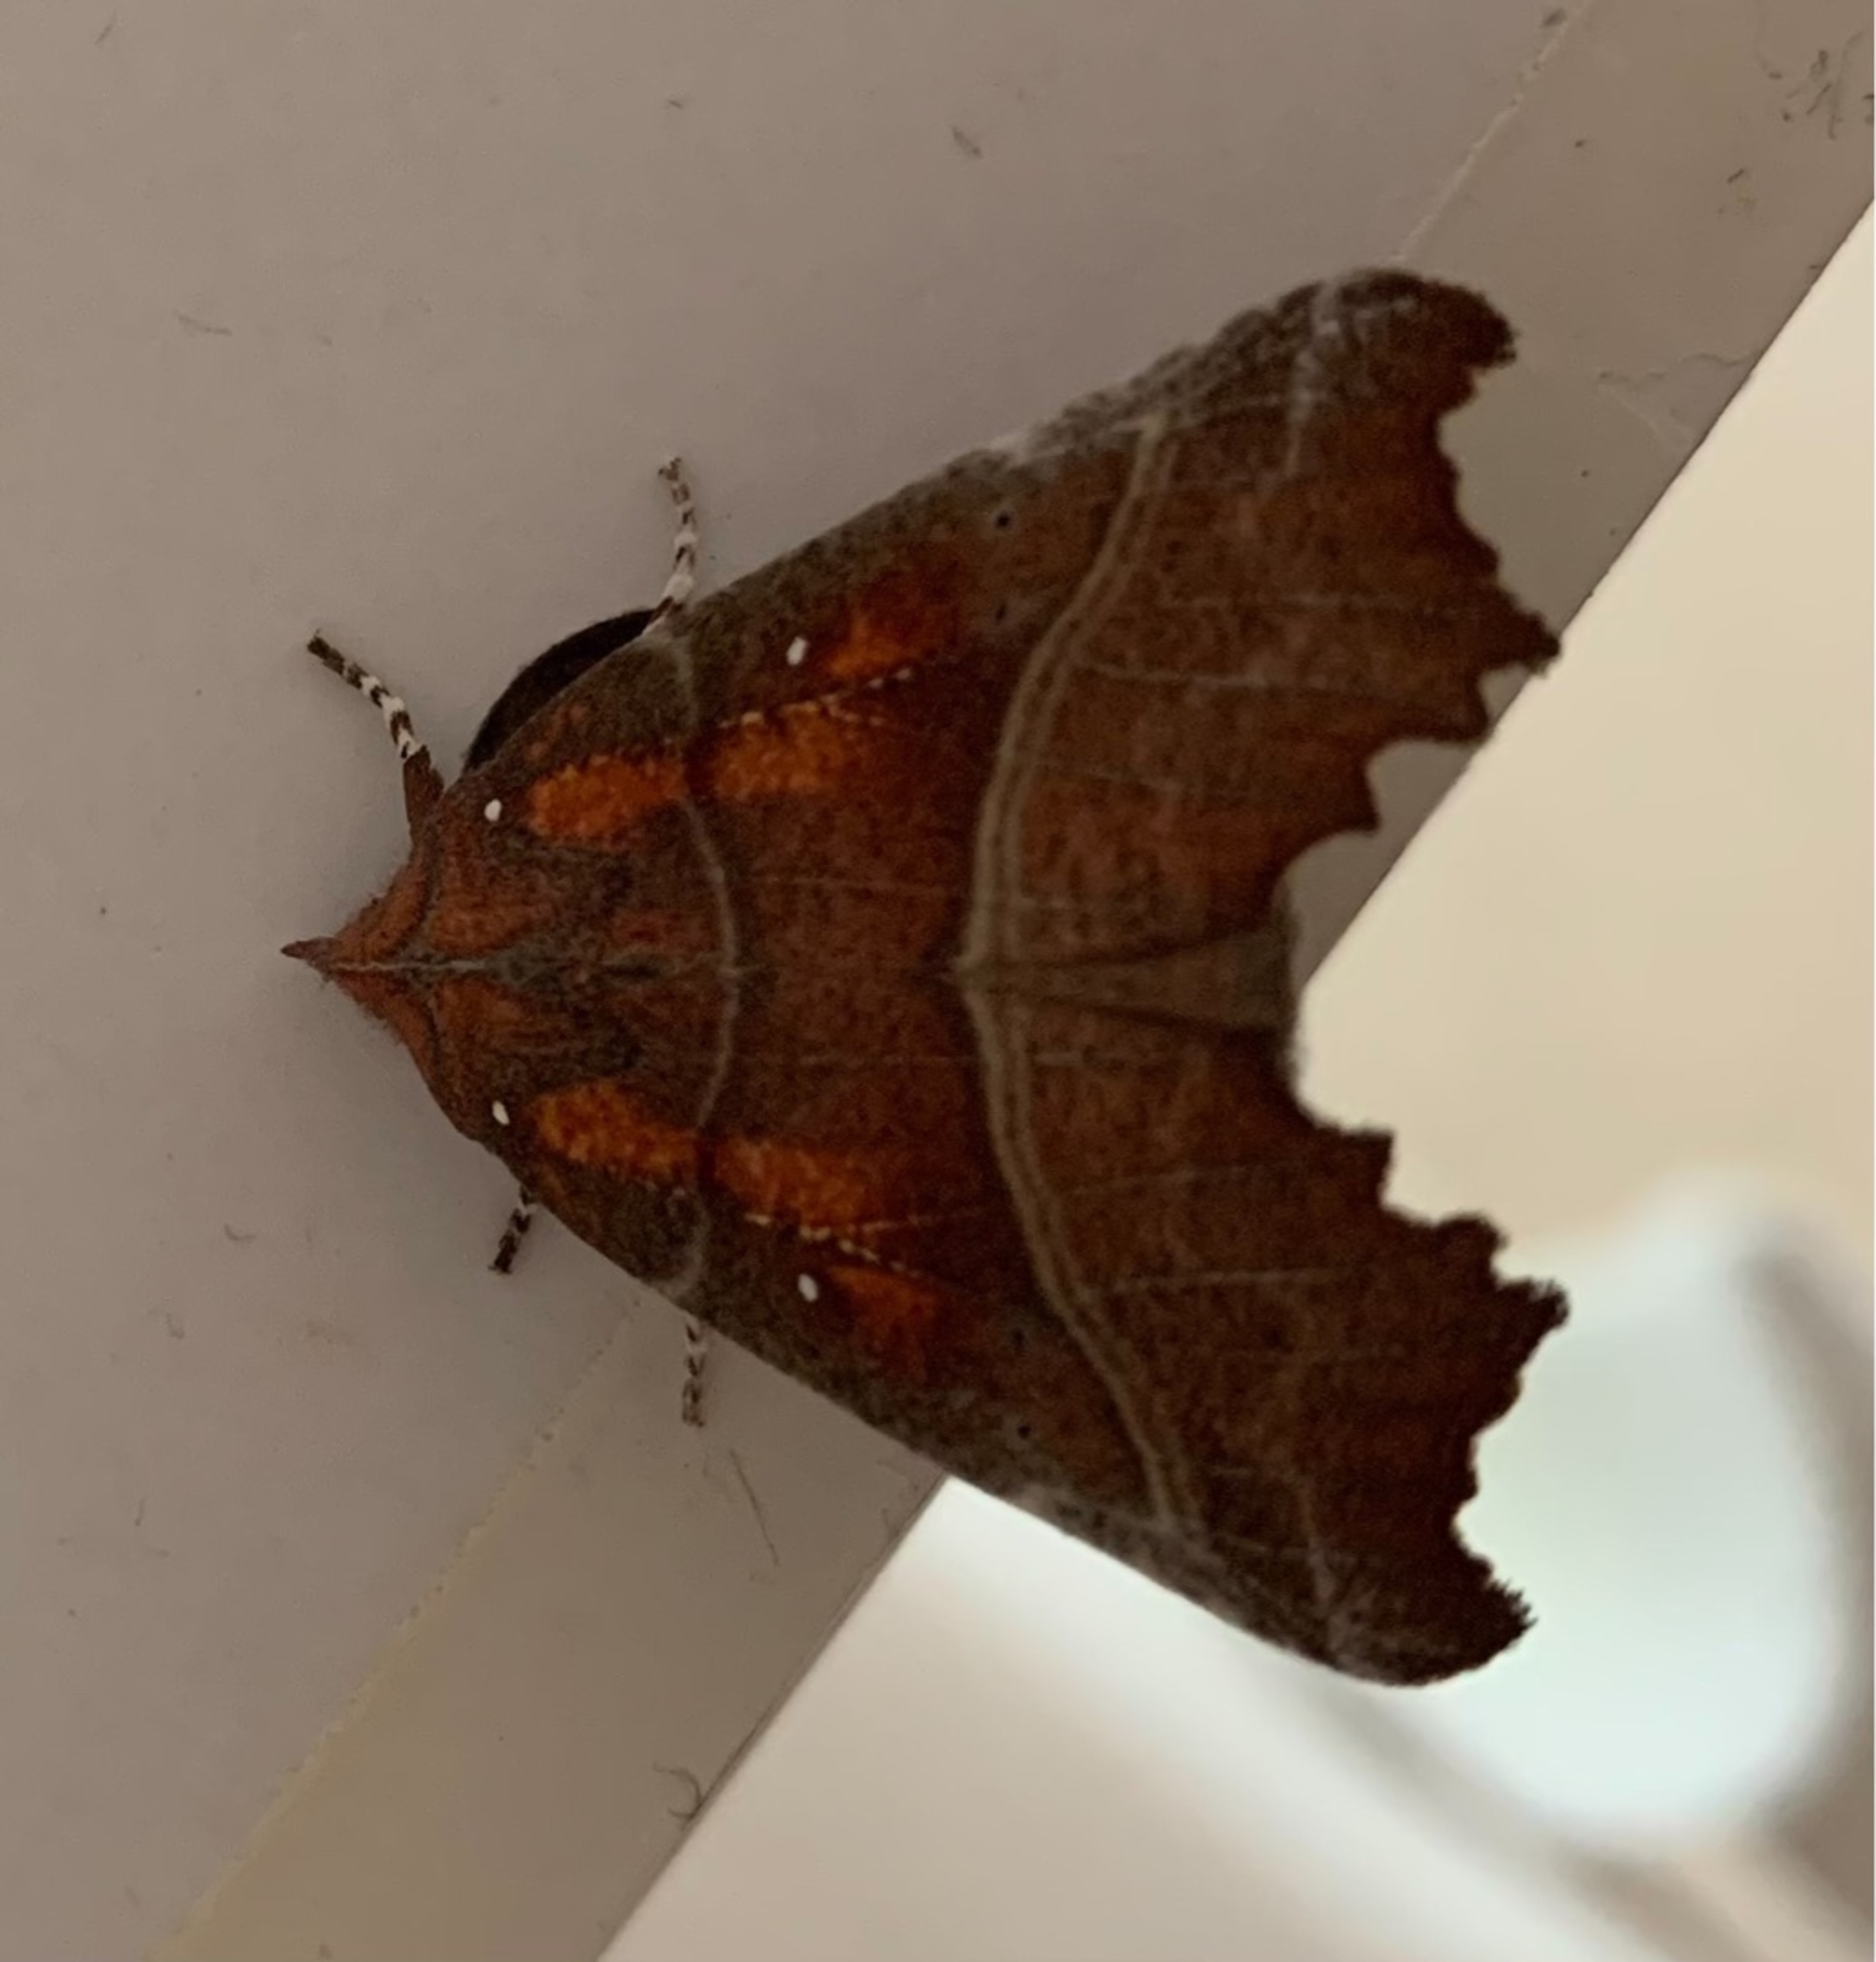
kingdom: Animalia
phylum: Arthropoda
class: Insecta
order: Lepidoptera
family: Erebidae
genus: Scoliopteryx
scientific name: Scoliopteryx libatrix
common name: Husmoderugle
